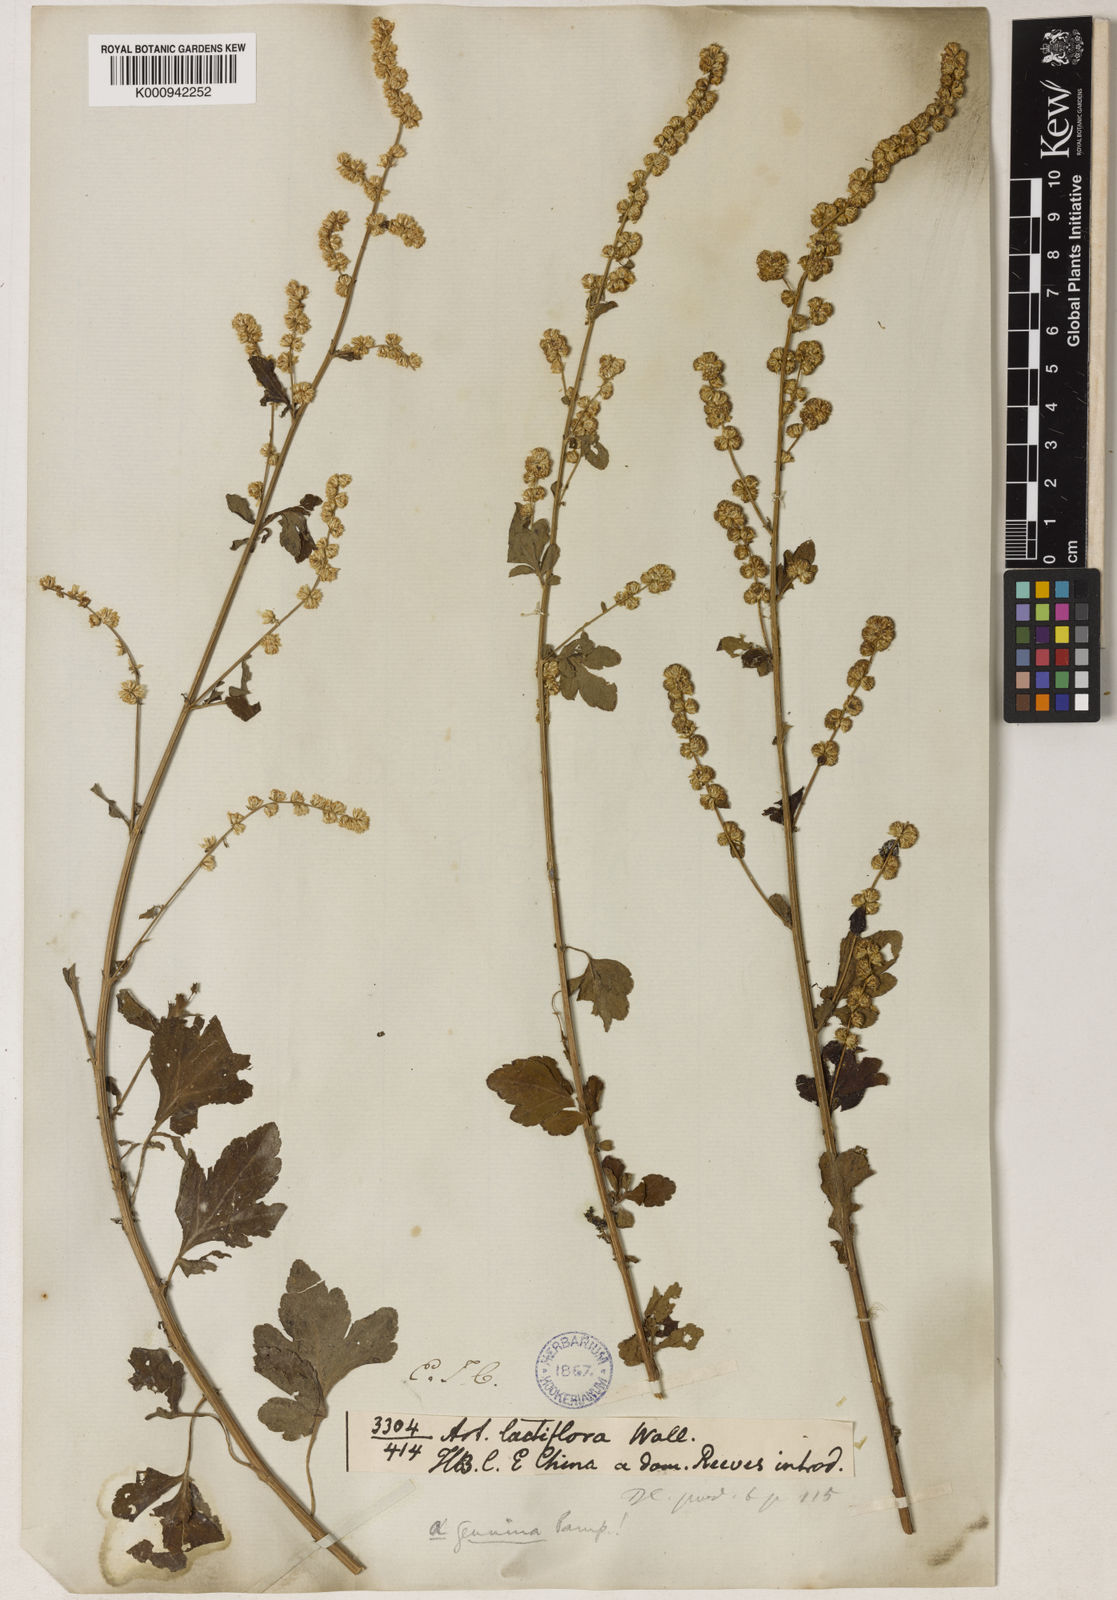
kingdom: Plantae
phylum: Tracheophyta
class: Magnoliopsida
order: Asterales
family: Asteraceae
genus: Artemisia
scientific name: Artemisia
